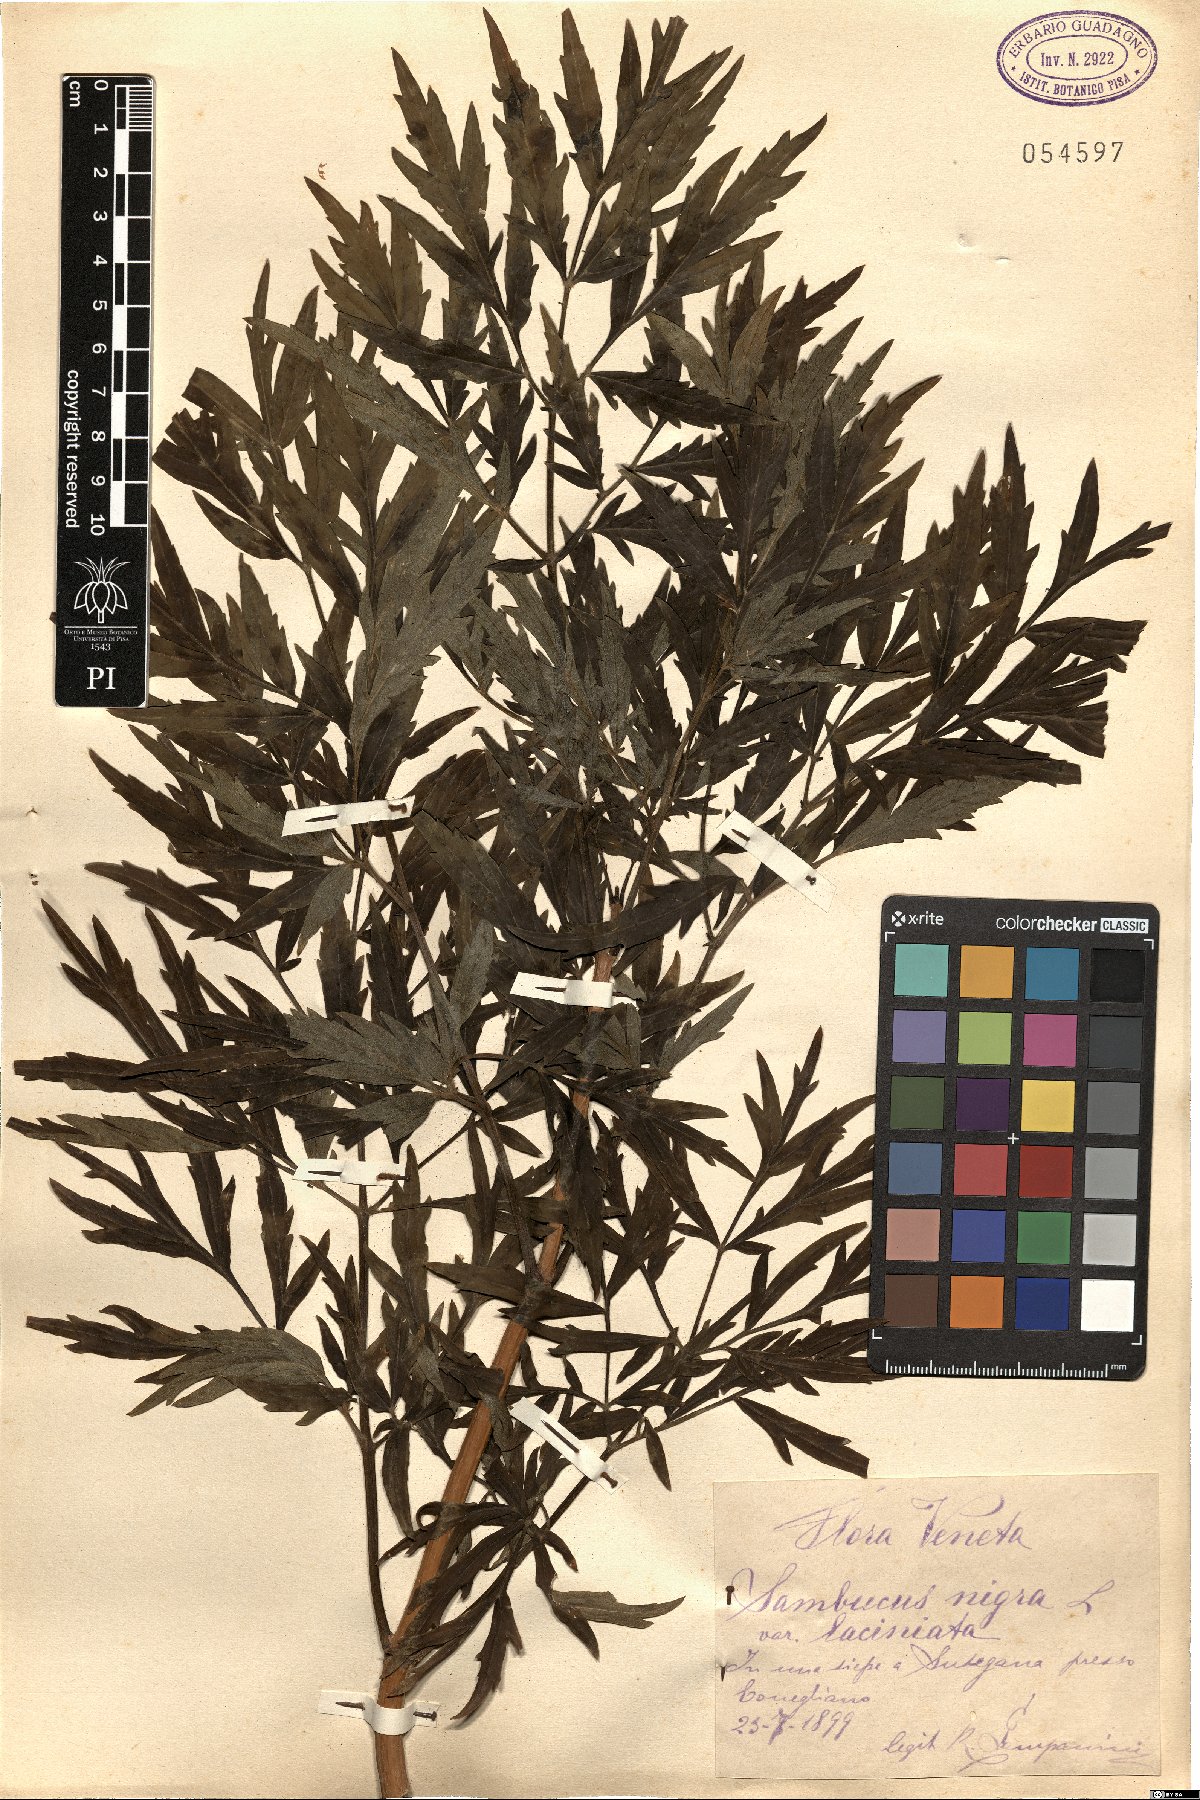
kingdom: Plantae
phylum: Tracheophyta
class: Magnoliopsida
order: Dipsacales
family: Viburnaceae
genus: Sambucus
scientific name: Sambucus nigra
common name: Elder
